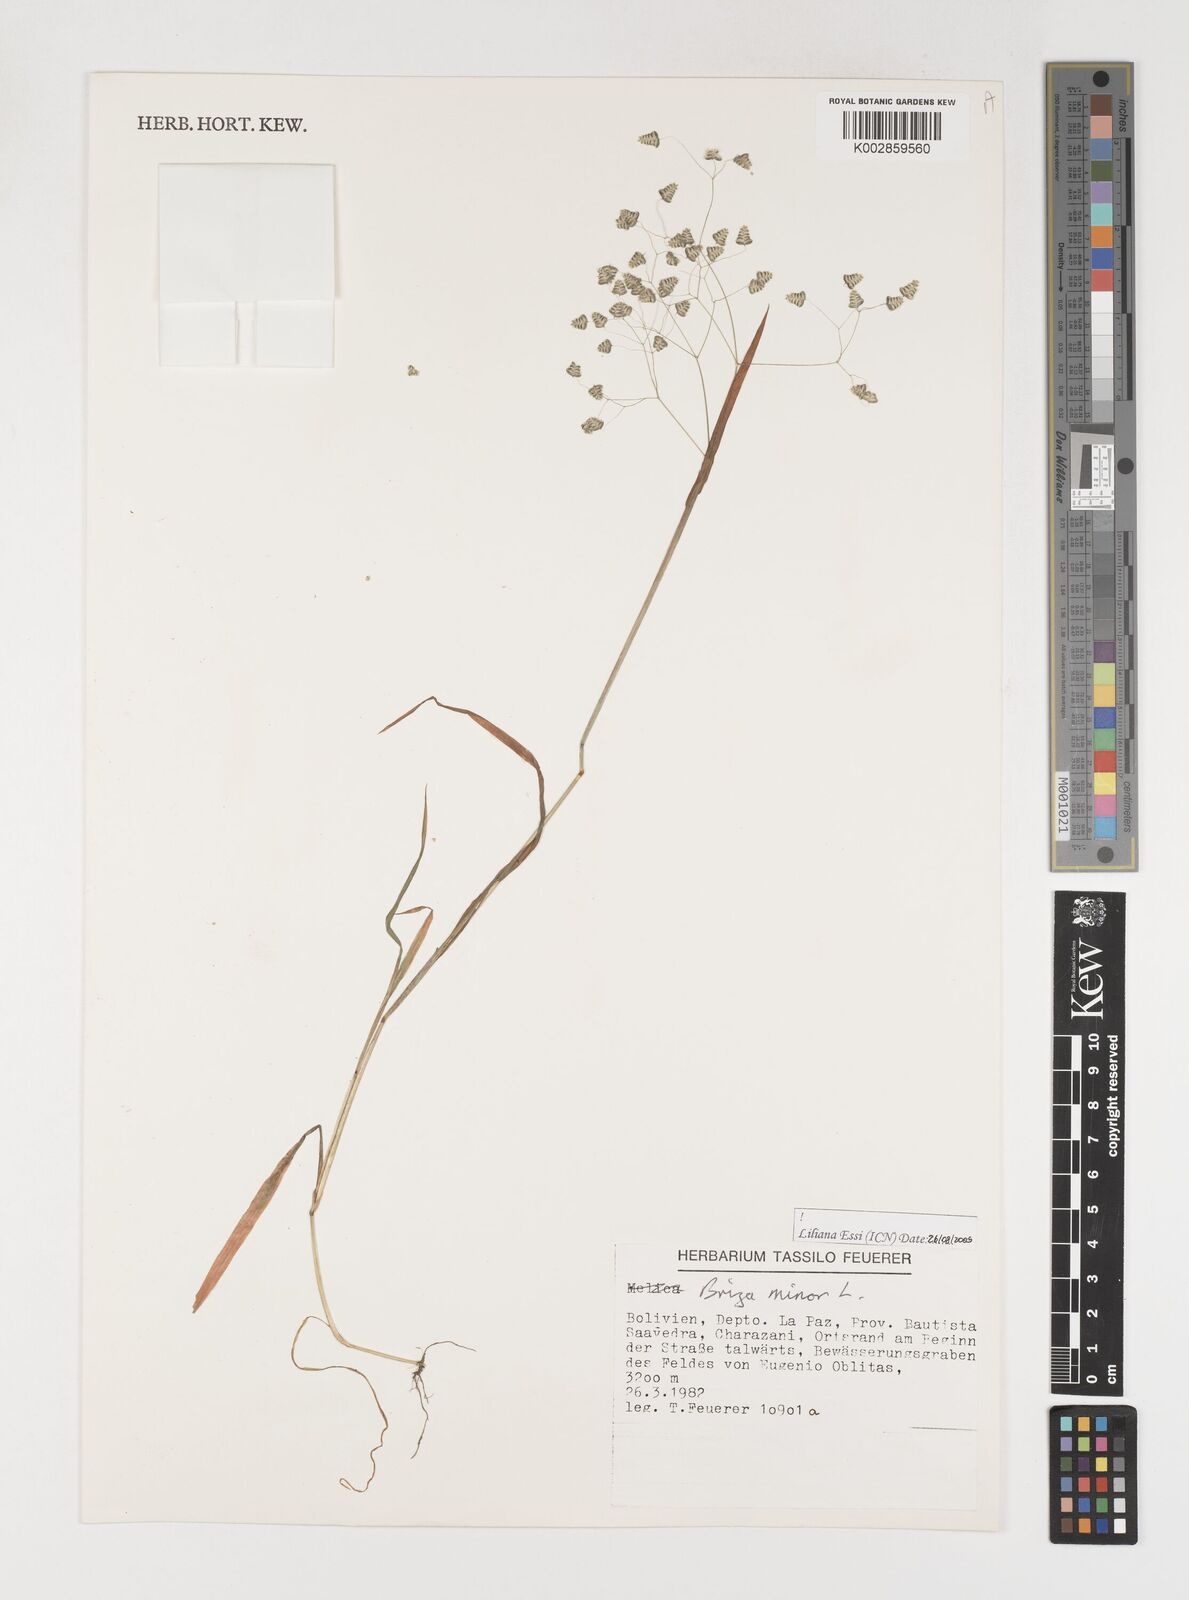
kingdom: Plantae
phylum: Tracheophyta
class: Liliopsida
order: Poales
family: Poaceae
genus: Briza
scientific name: Briza minor
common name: Lesser quaking-grass
